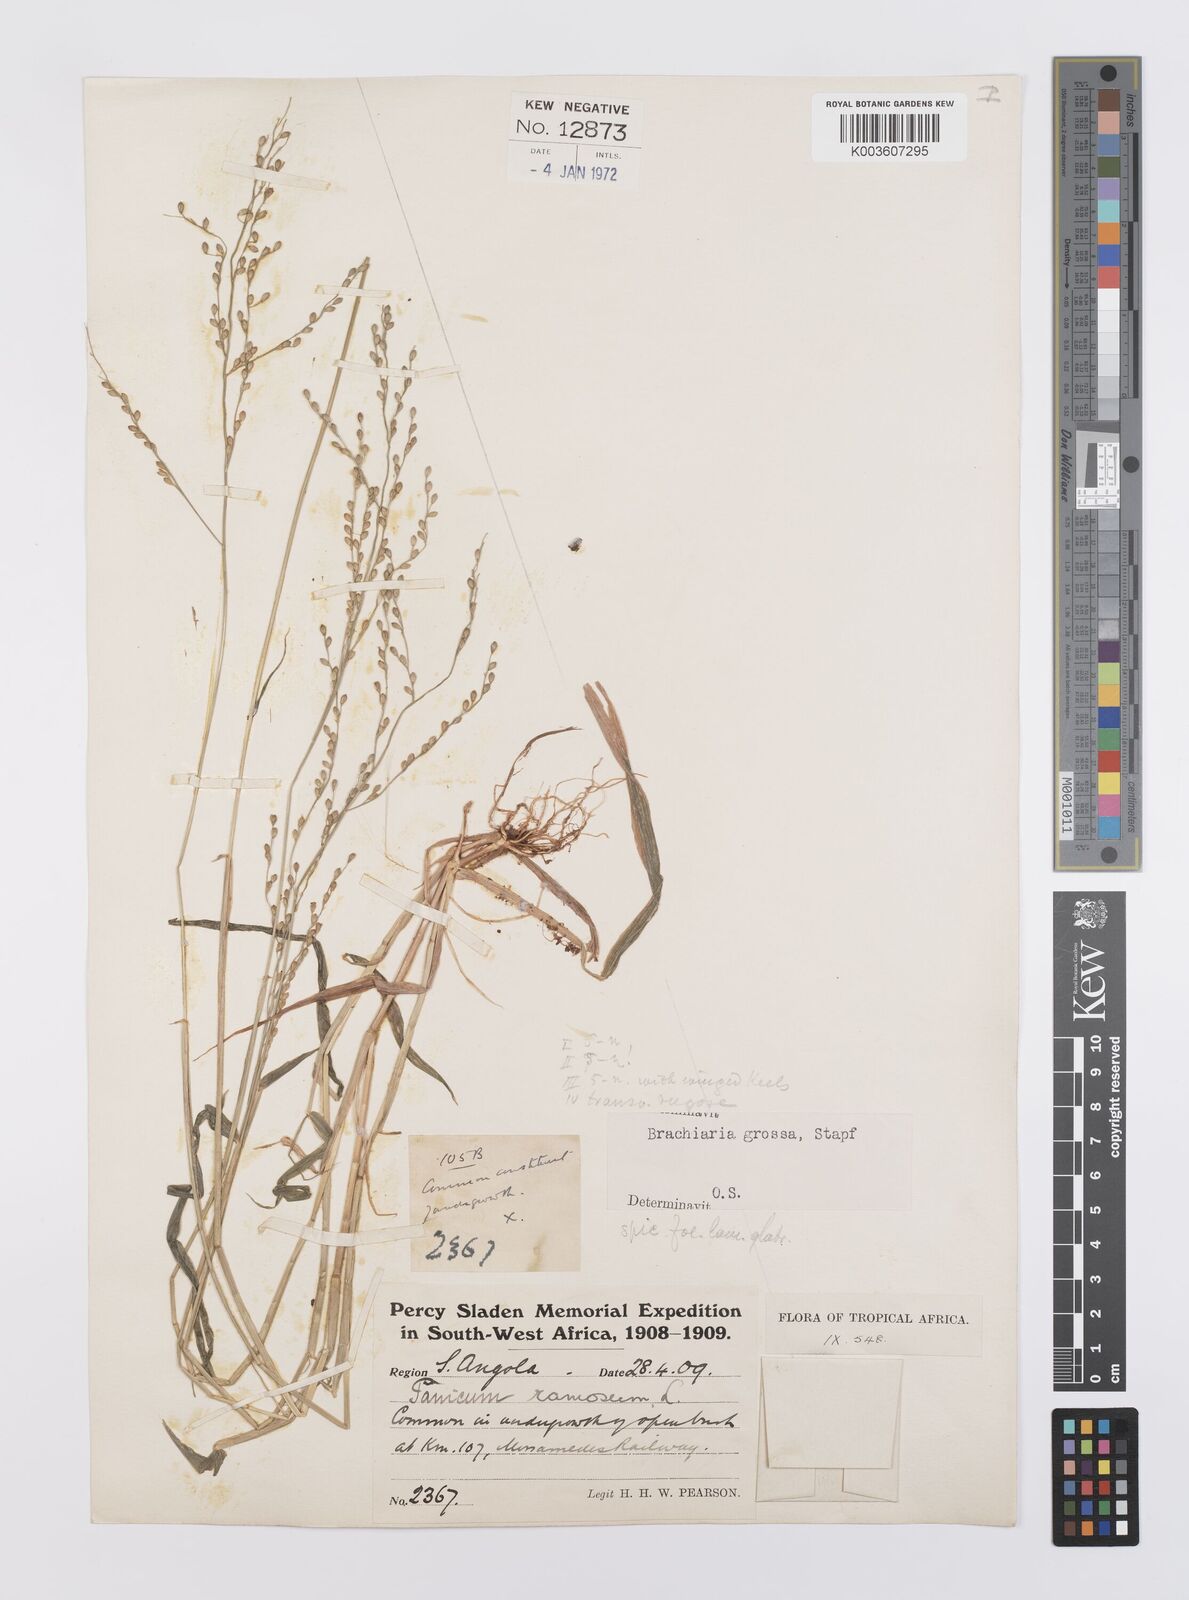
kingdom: Plantae
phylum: Tracheophyta
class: Liliopsida
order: Poales
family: Poaceae
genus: Urochloa
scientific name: Urochloa Brachiaria grossa
